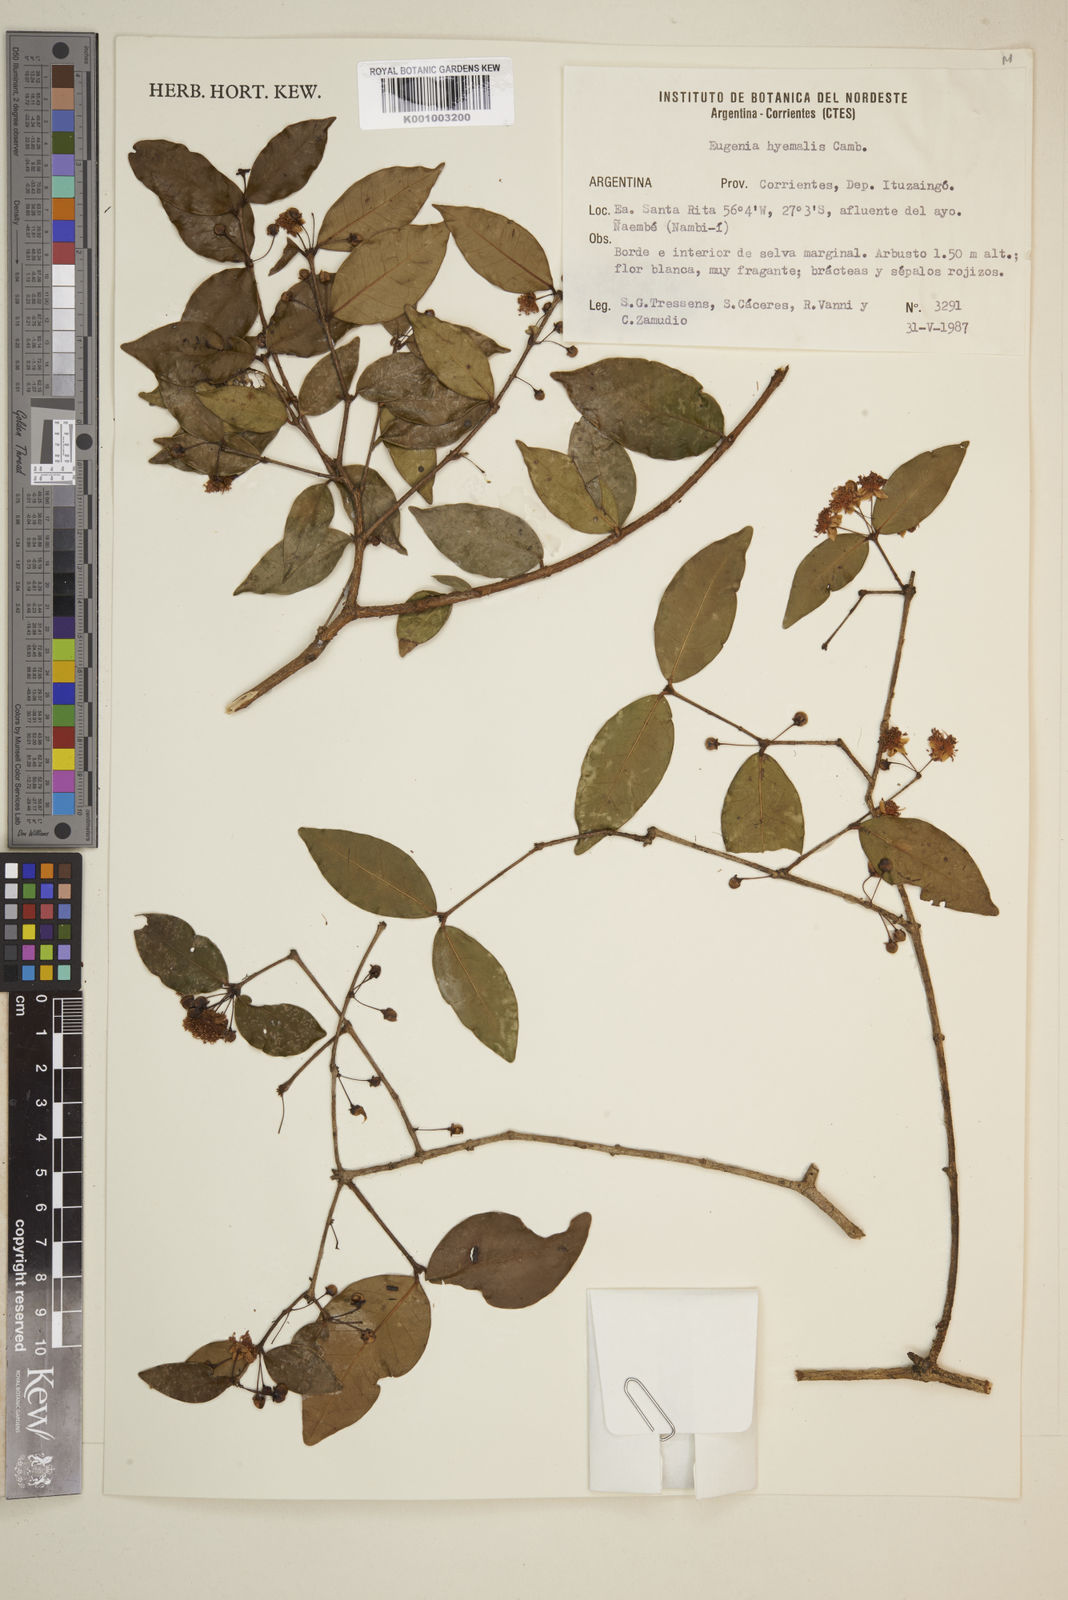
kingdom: Plantae
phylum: Tracheophyta
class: Magnoliopsida
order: Myrtales
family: Myrtaceae
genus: Eugenia
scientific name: Eugenia
